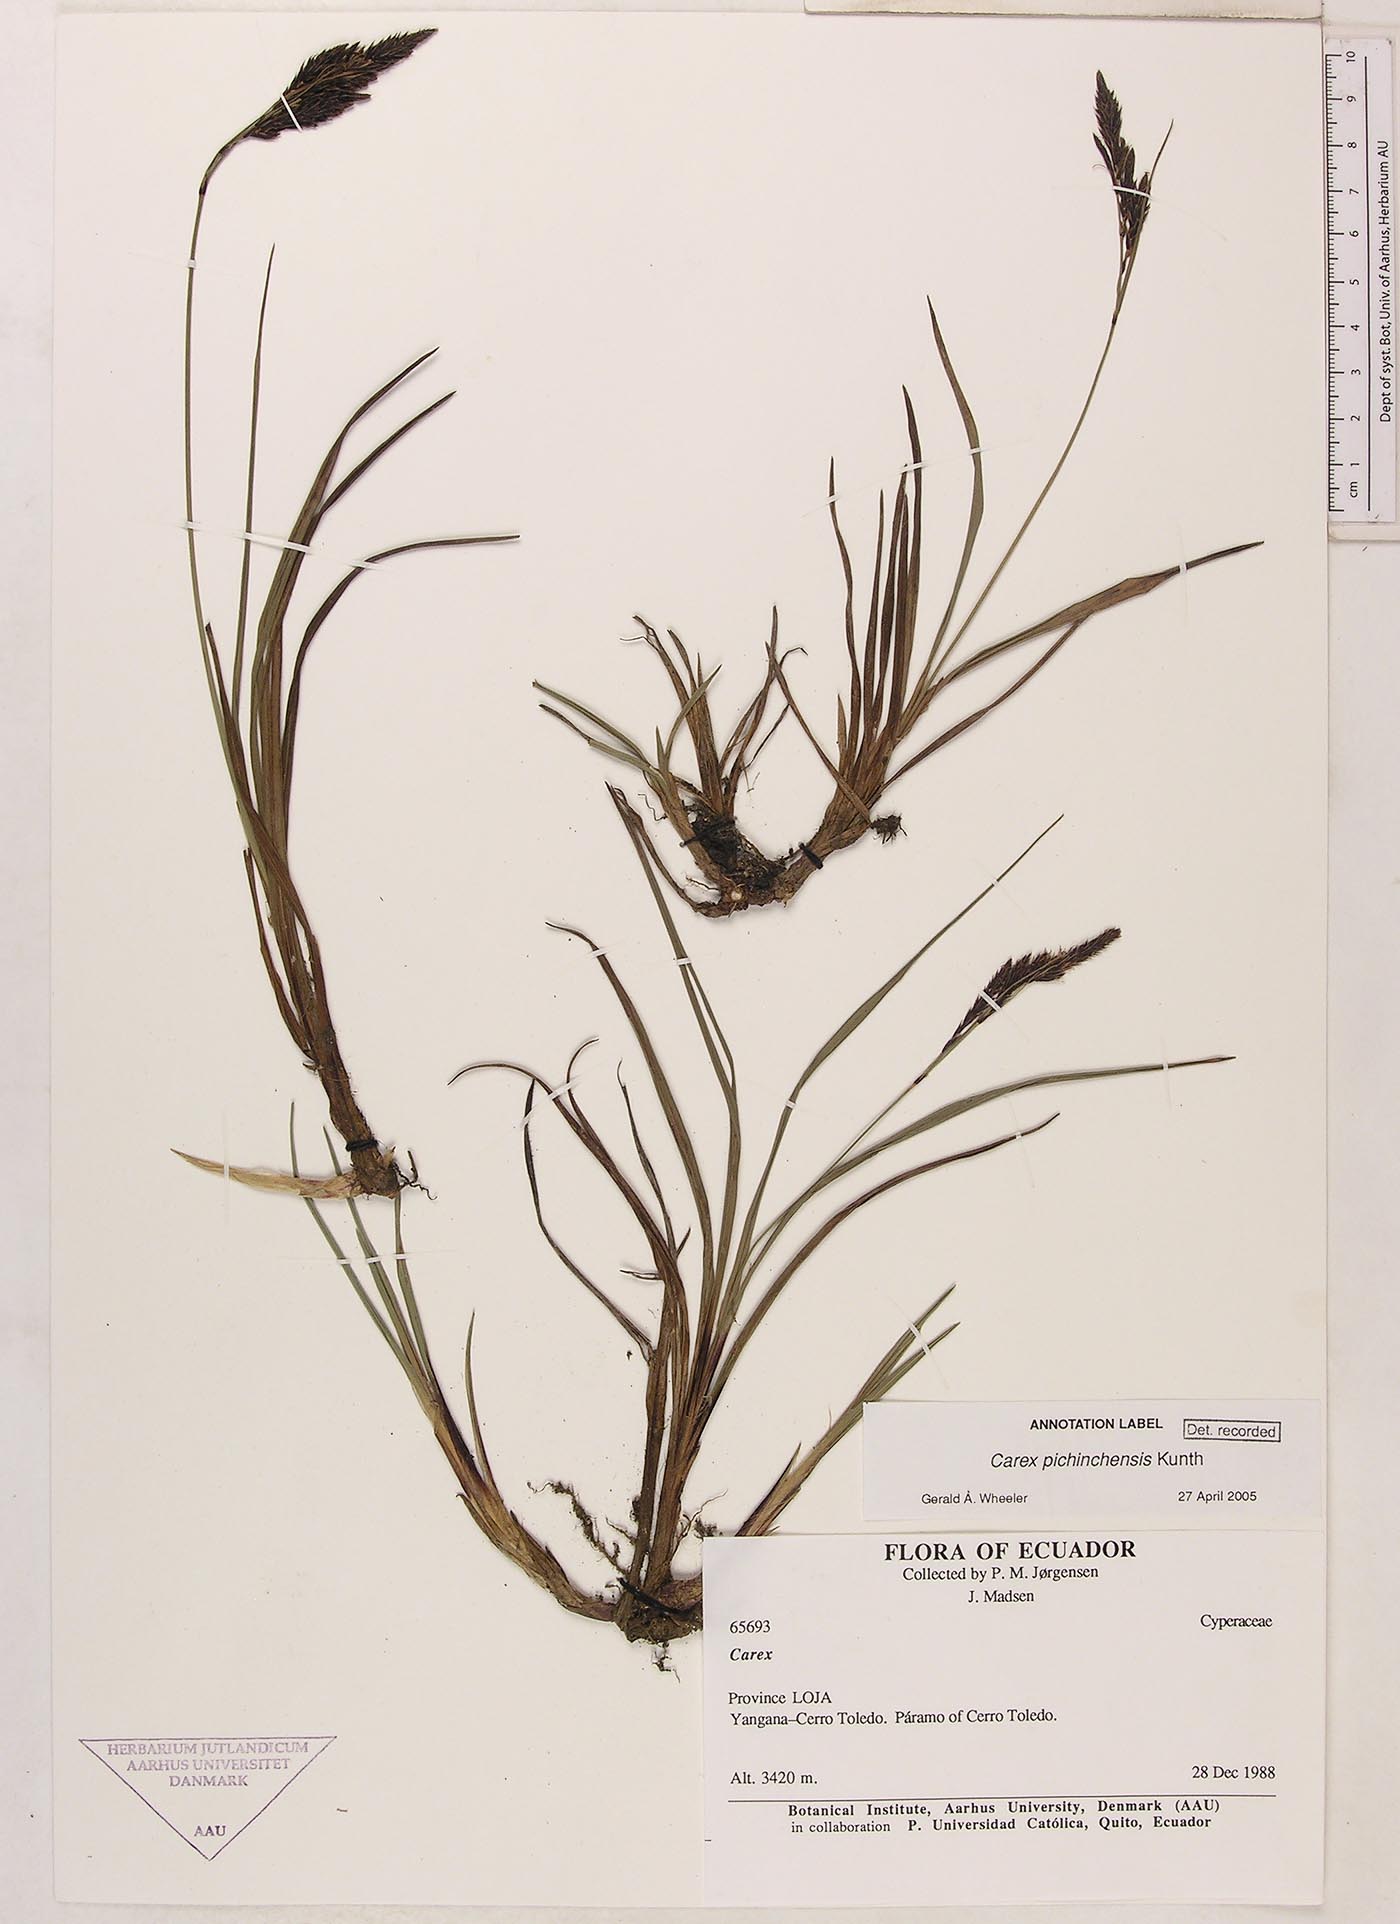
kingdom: Plantae
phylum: Tracheophyta
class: Liliopsida
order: Poales
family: Cyperaceae
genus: Carex
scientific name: Carex pichinchensis
